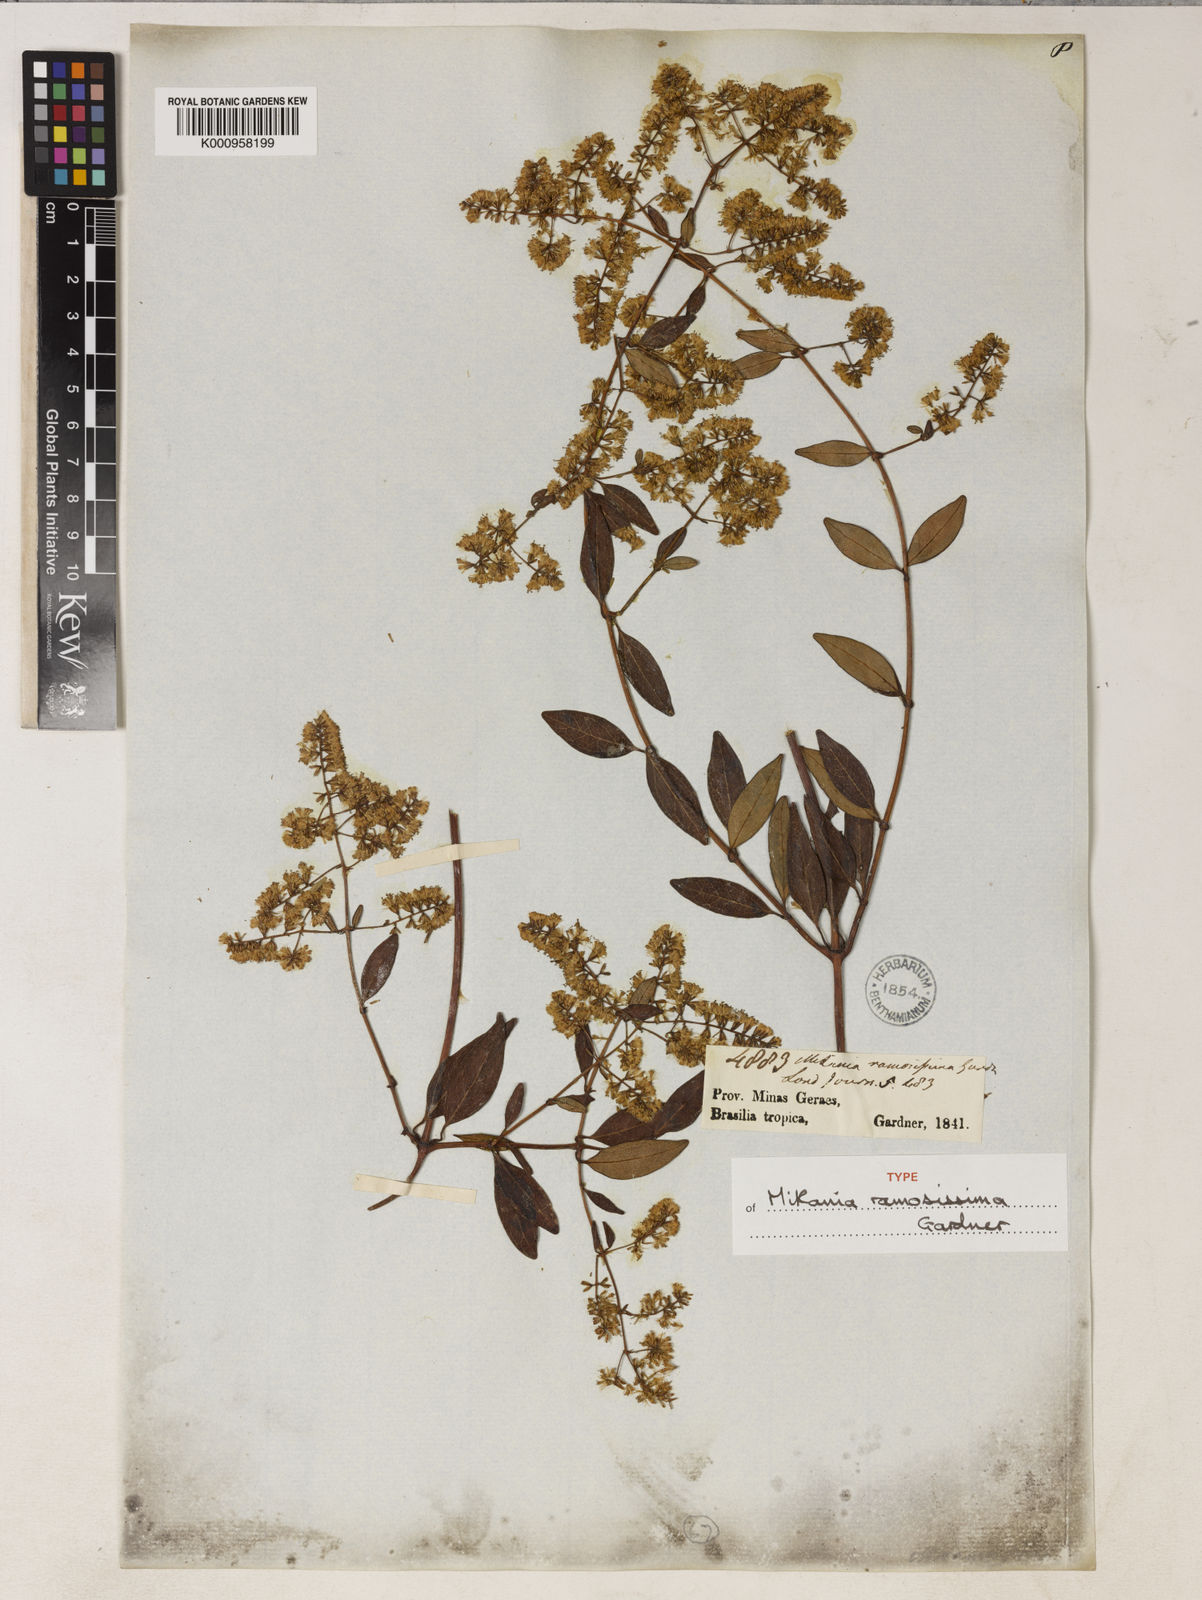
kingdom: Plantae
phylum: Tracheophyta
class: Magnoliopsida
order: Asterales
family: Asteraceae
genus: Mikania
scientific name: Mikania ramosissima
